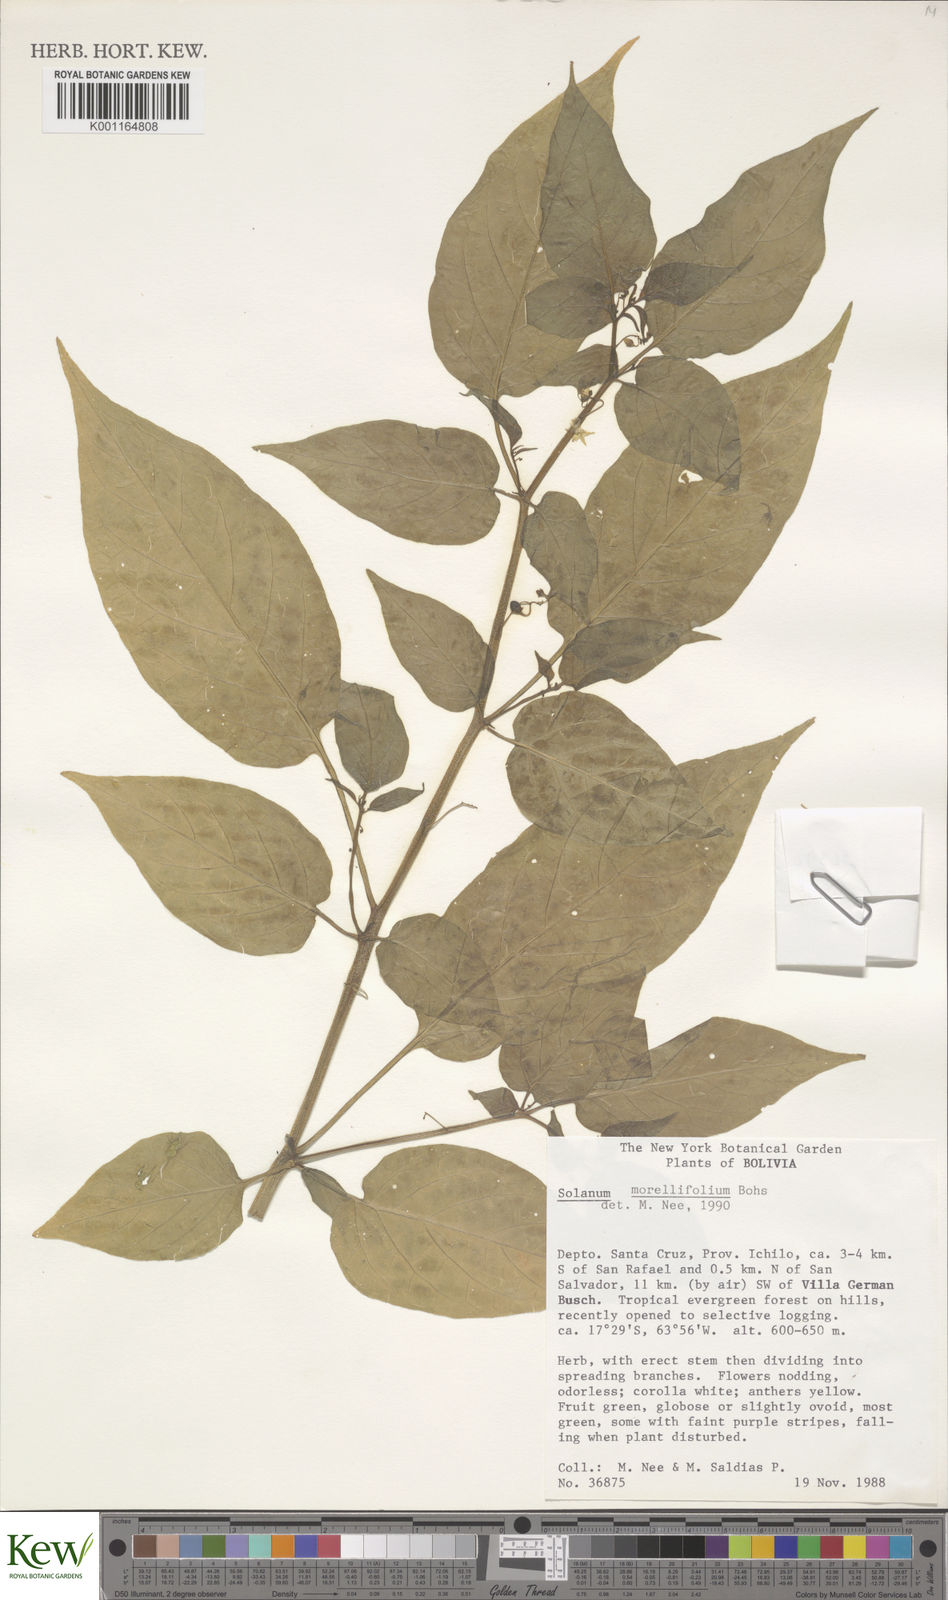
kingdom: Plantae
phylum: Tracheophyta
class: Magnoliopsida
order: Solanales
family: Solanaceae
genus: Solanum
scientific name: Solanum morellifolium
